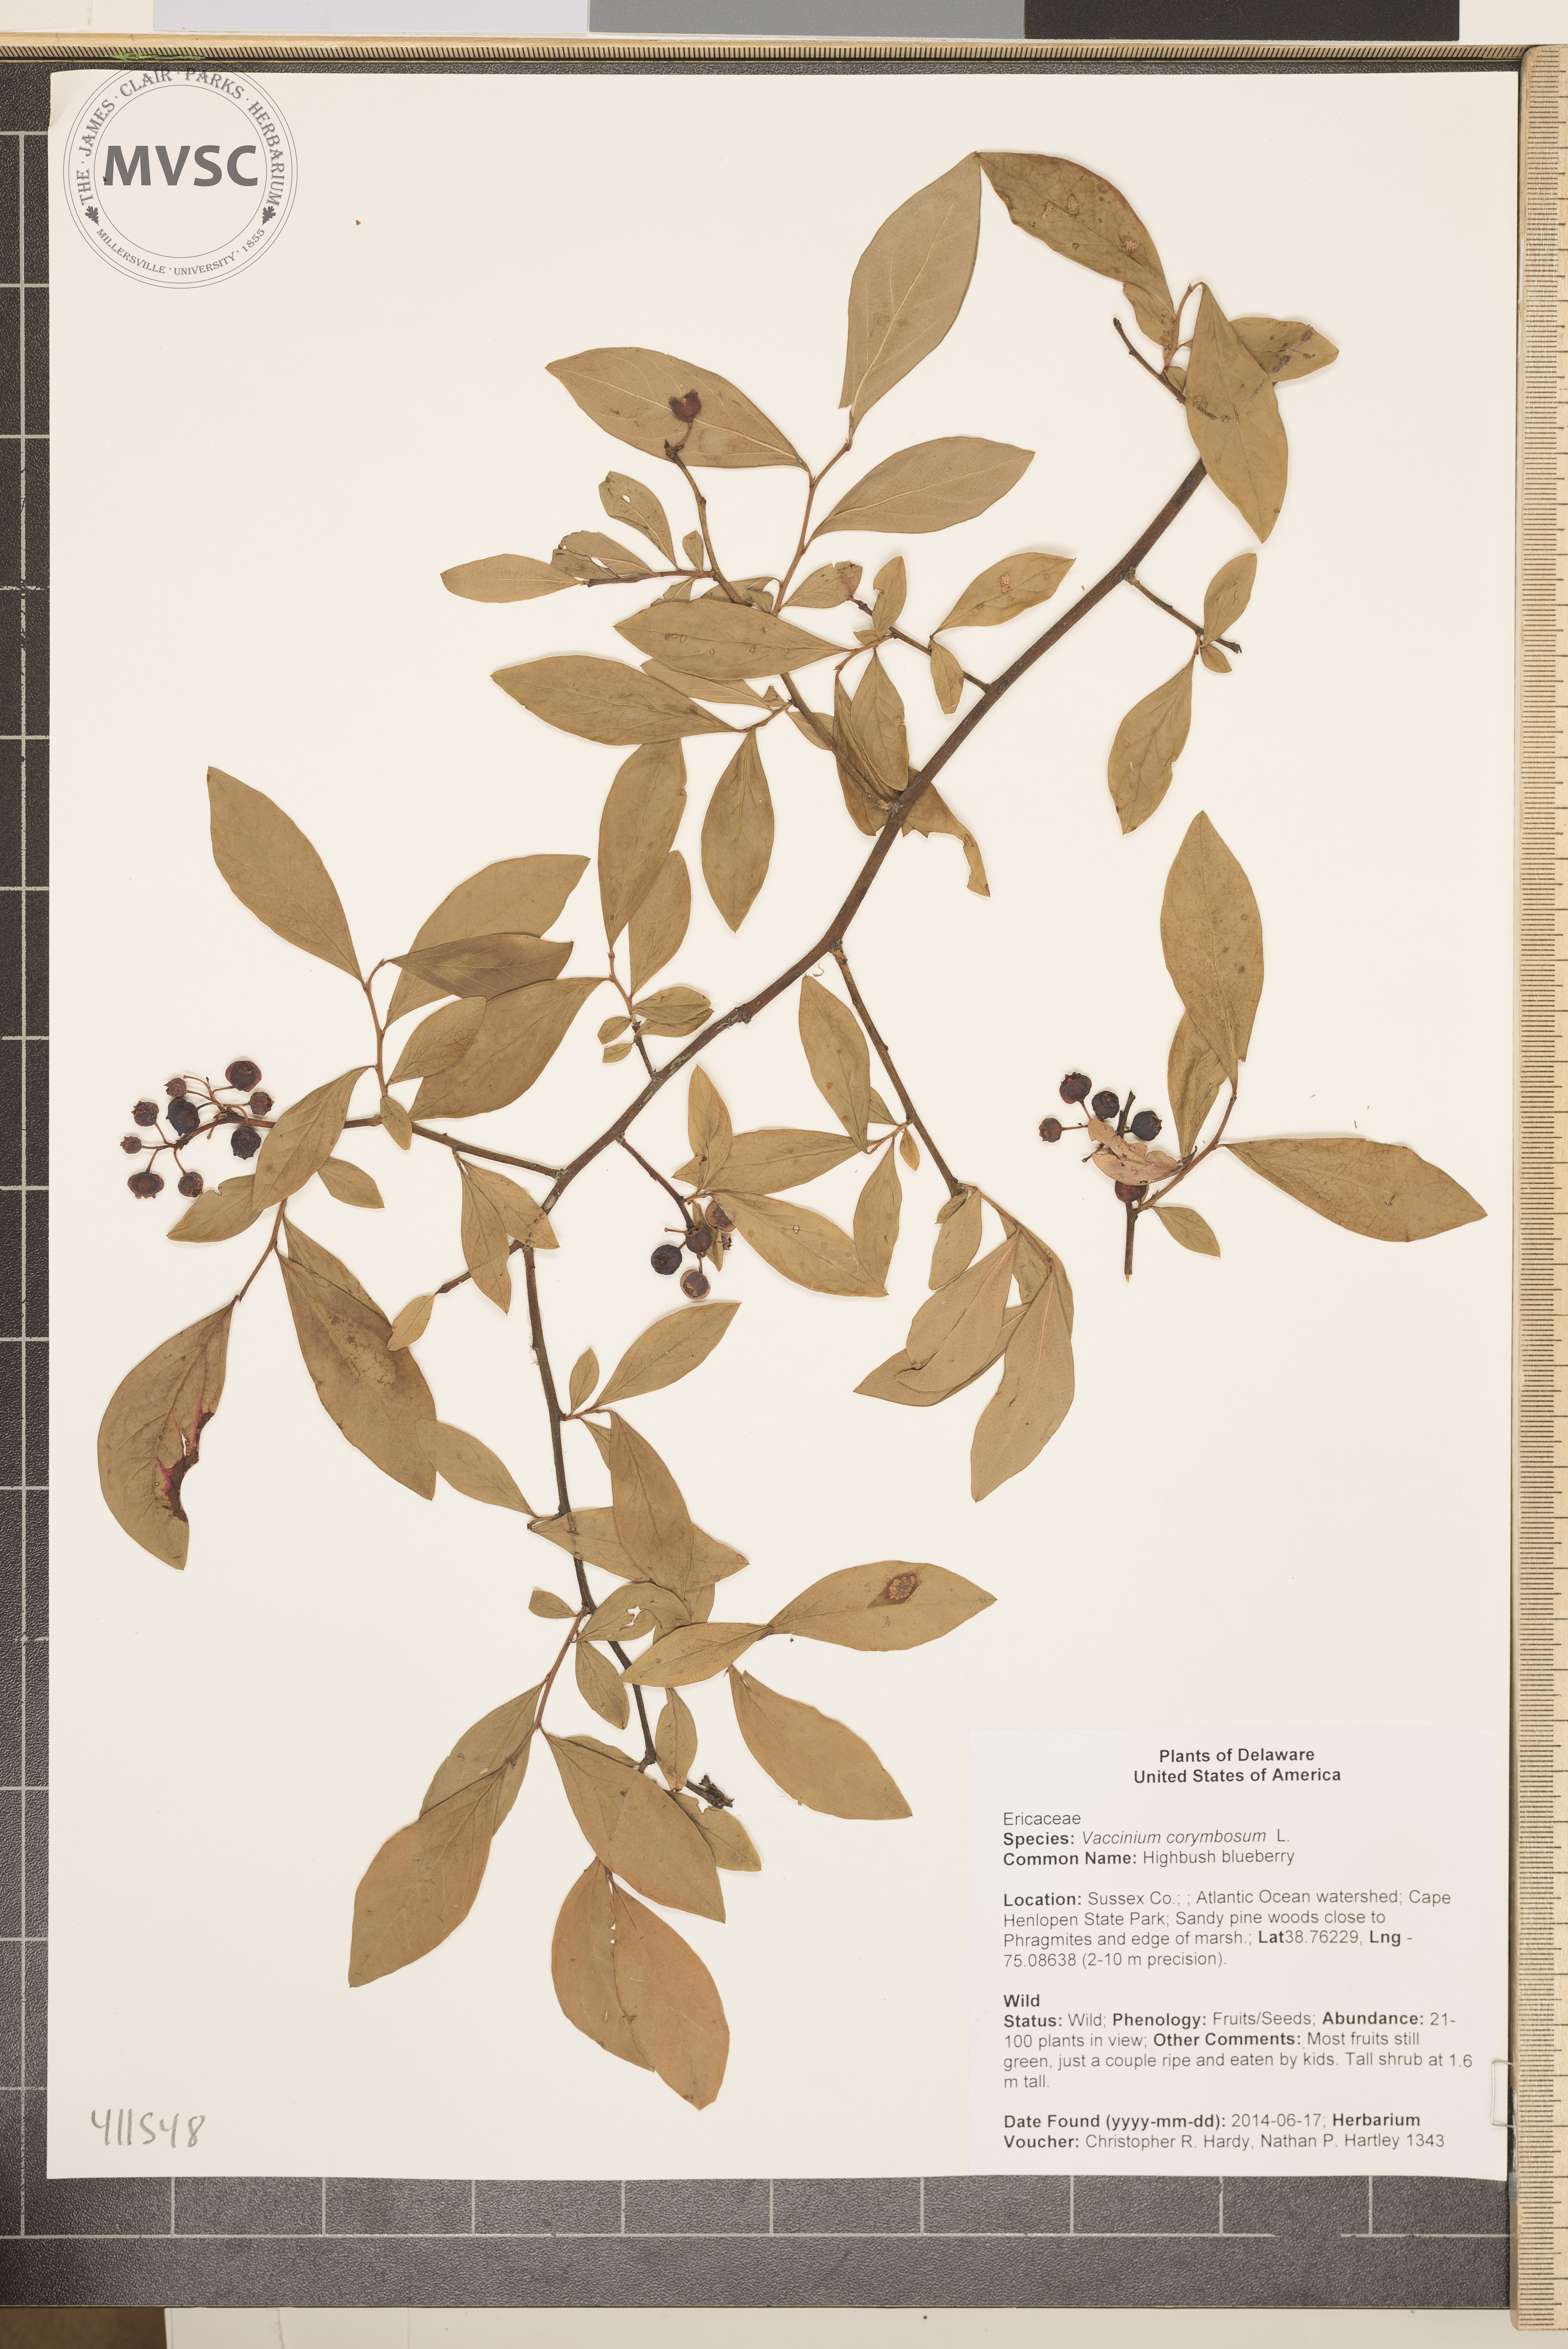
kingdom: Plantae
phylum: Tracheophyta
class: Magnoliopsida
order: Ericales
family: Ericaceae
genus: Vaccinium
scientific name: Vaccinium corymbosum
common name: Highbush blueberry
